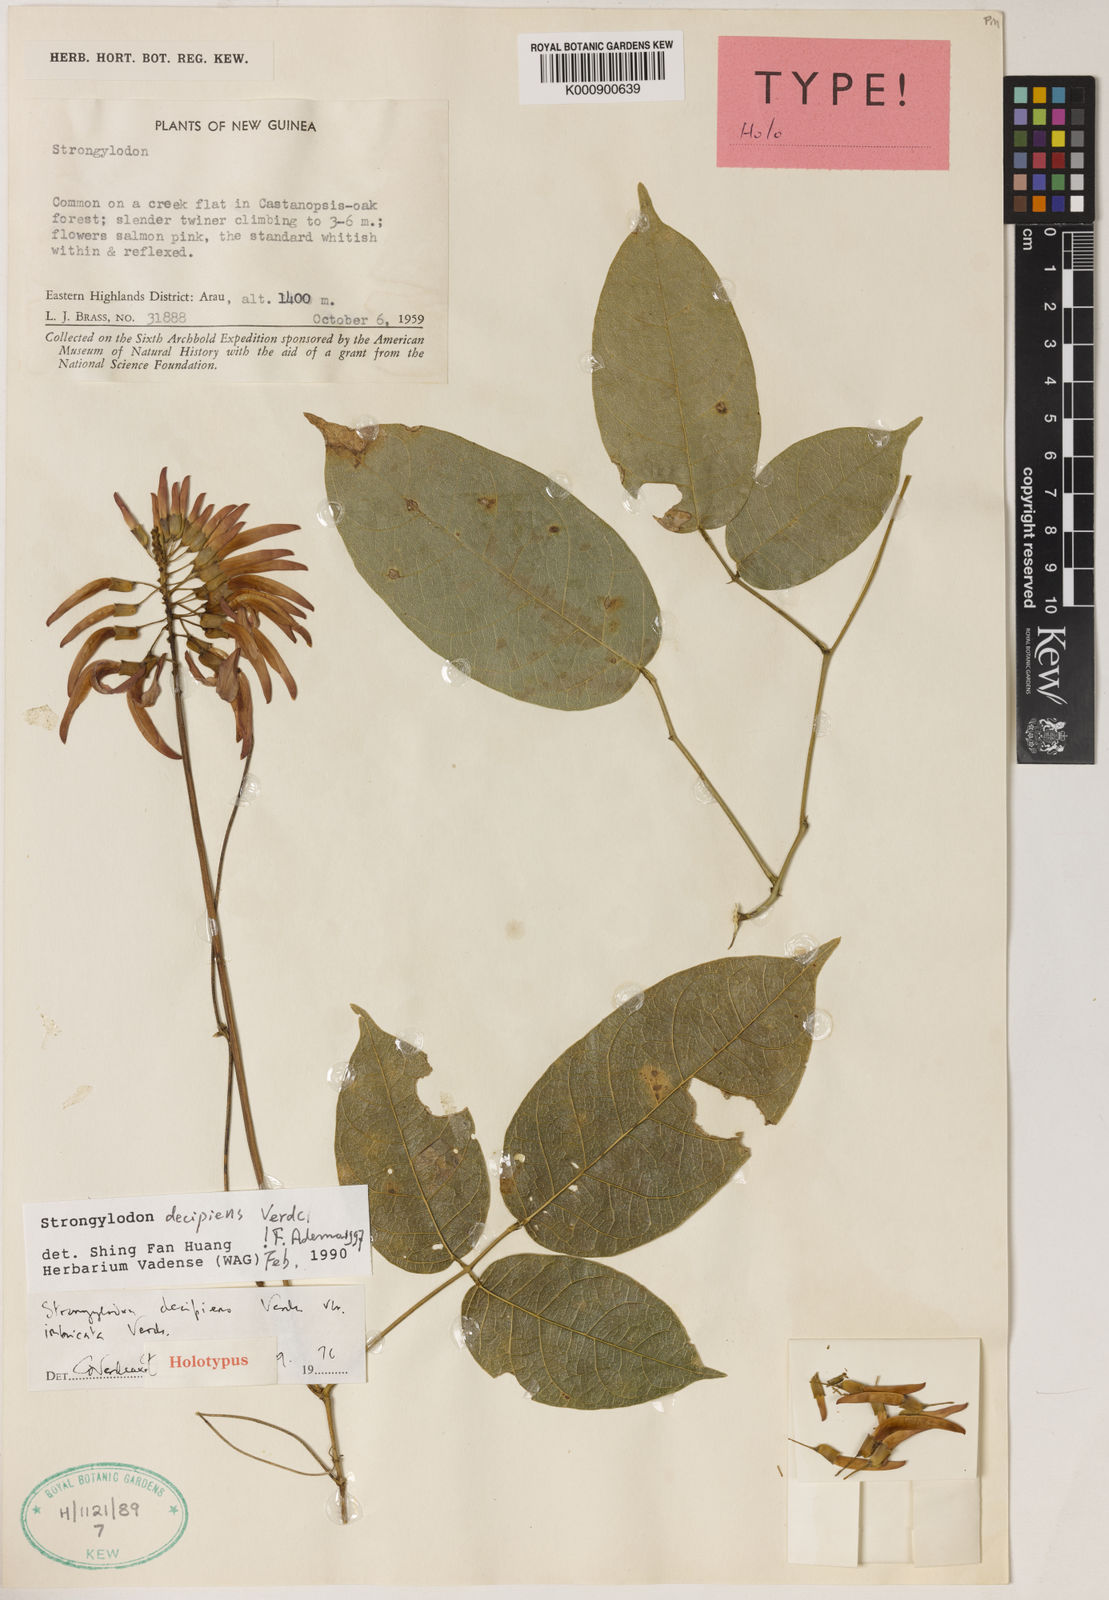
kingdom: Plantae
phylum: Tracheophyta
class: Magnoliopsida
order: Fabales
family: Fabaceae
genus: Strongylodon
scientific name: Strongylodon decipiens
